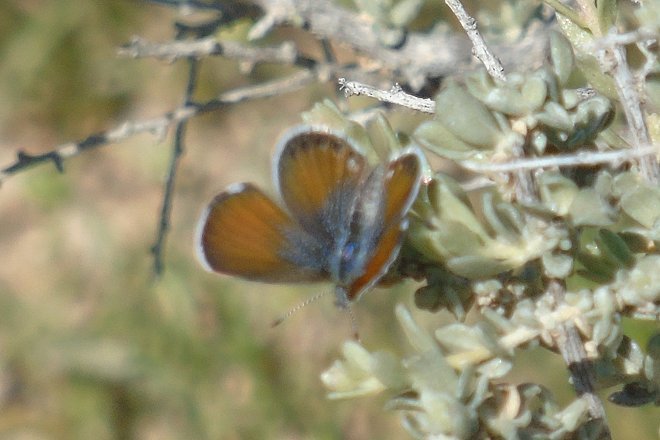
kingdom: Animalia
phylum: Arthropoda
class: Insecta
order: Lepidoptera
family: Lycaenidae
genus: Brephidium
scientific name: Brephidium exilis
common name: Western Pygmy-Blue
